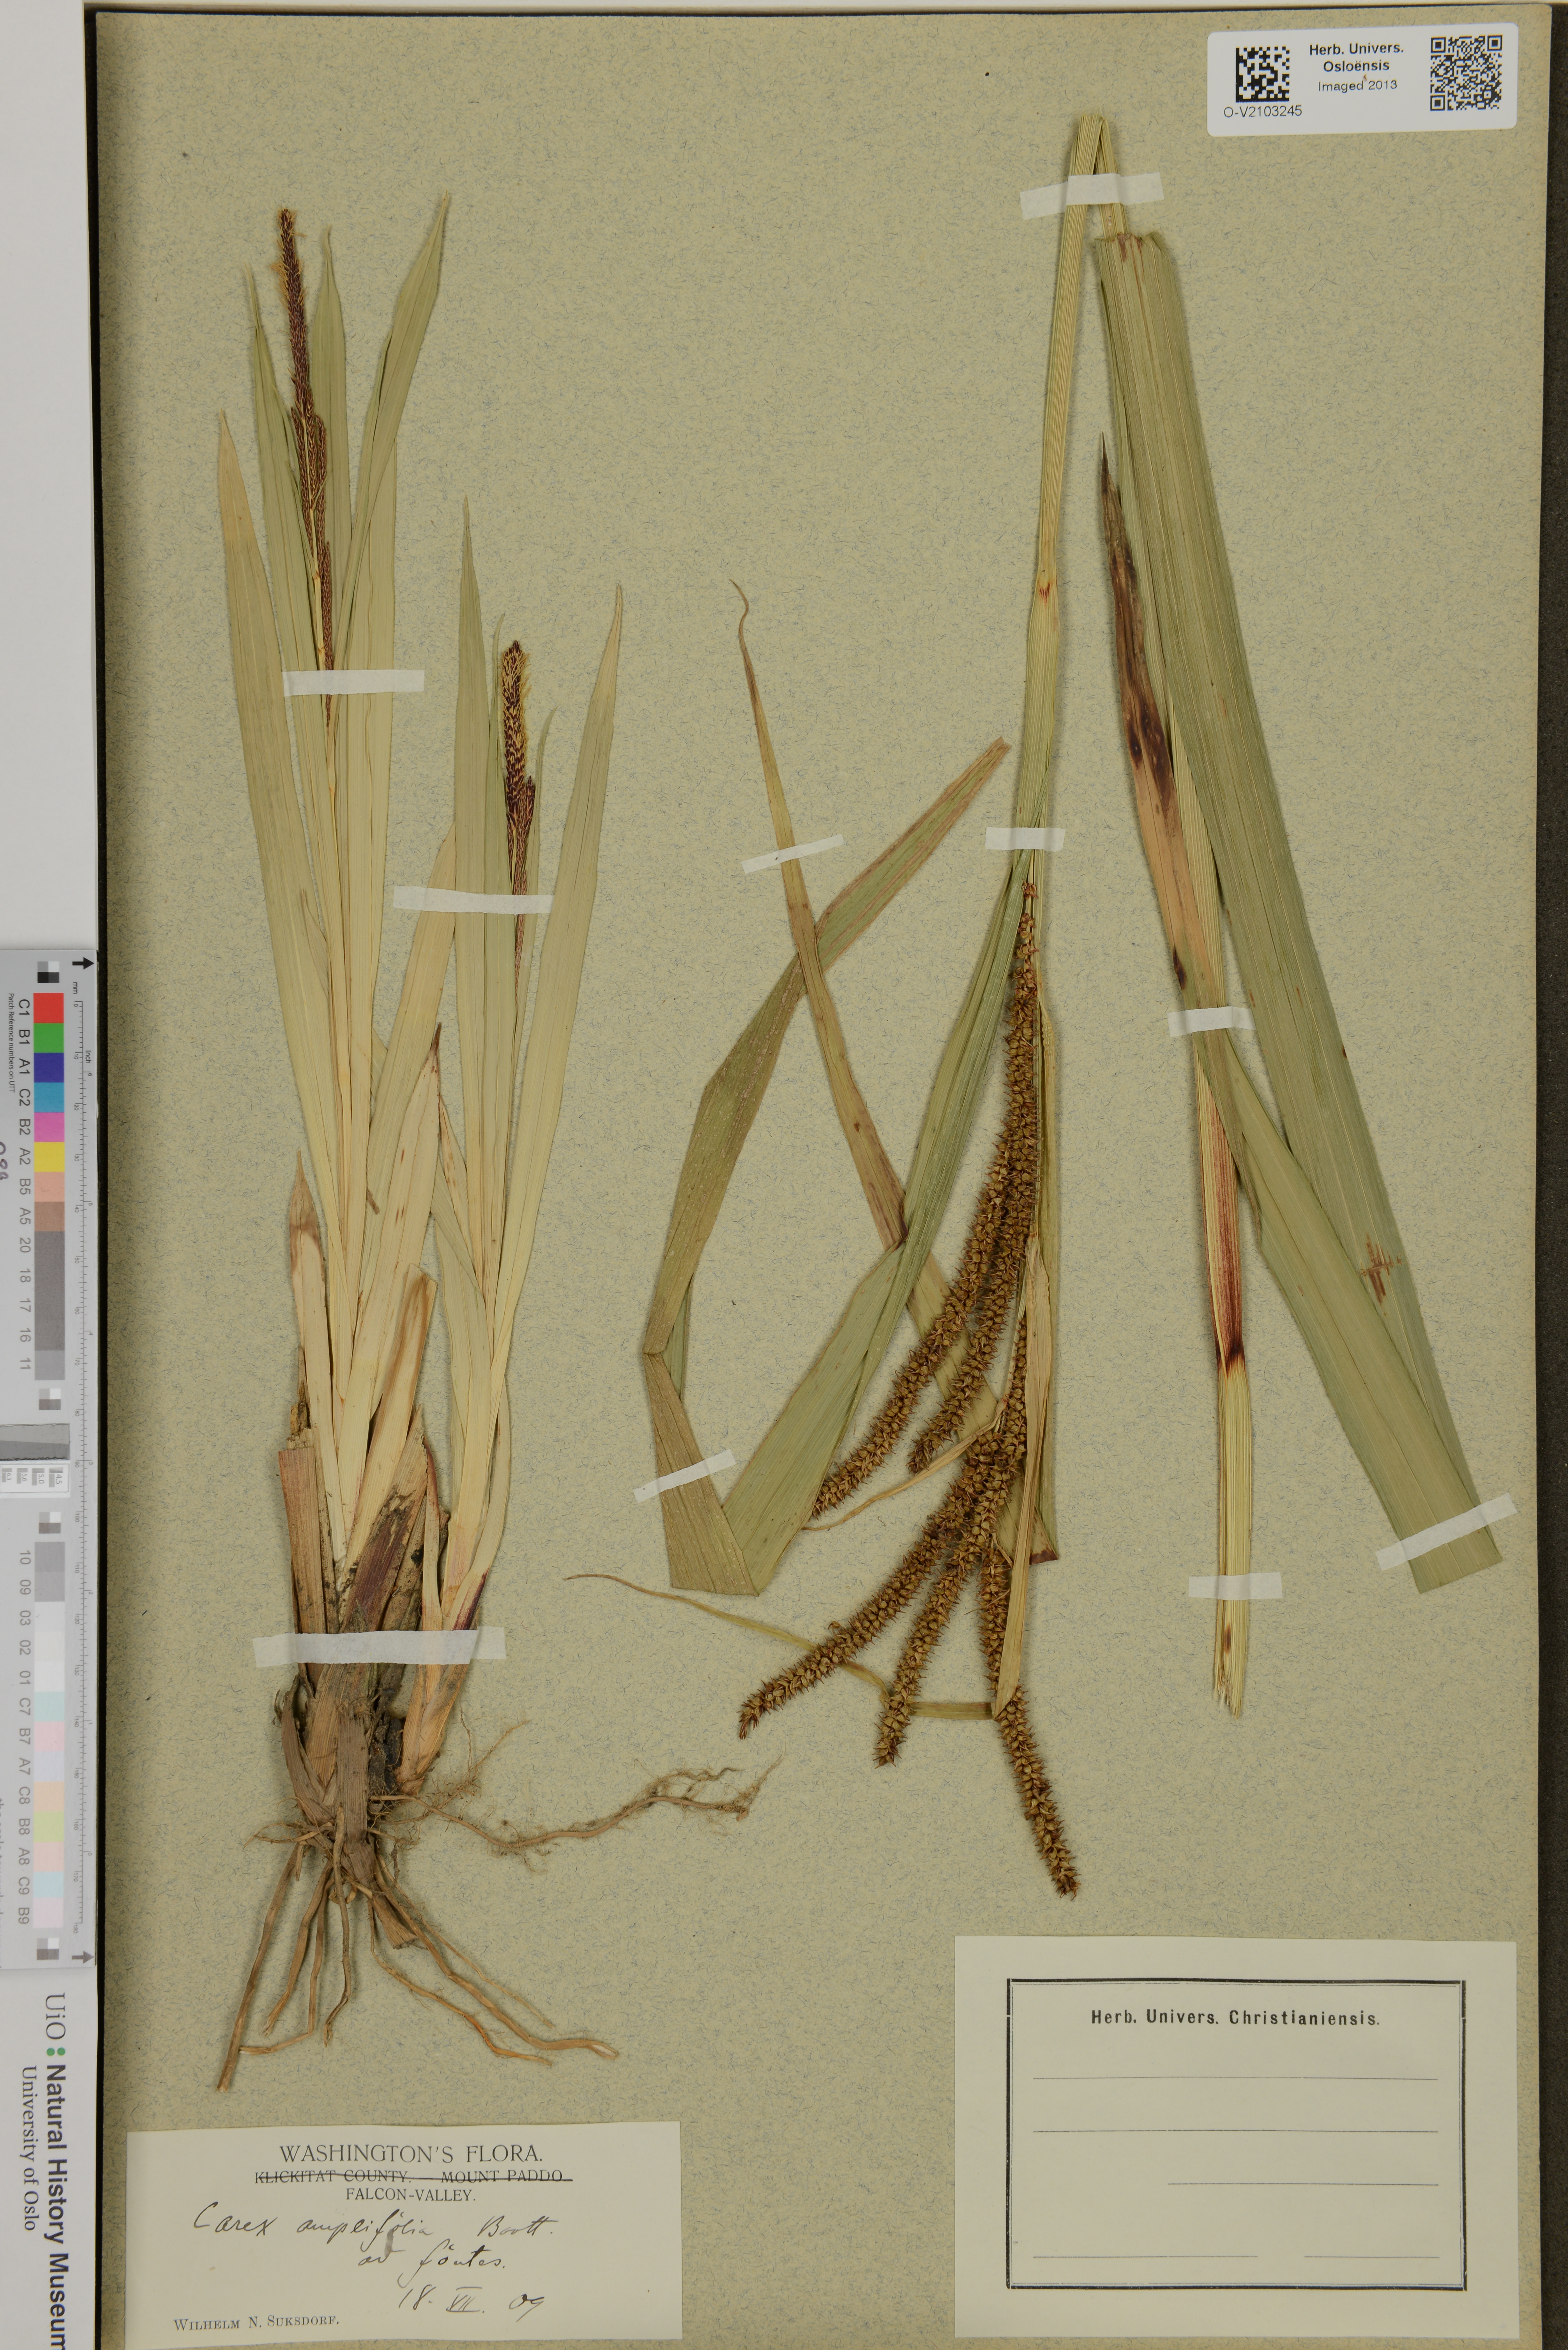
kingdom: Plantae
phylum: Tracheophyta
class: Liliopsida
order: Poales
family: Cyperaceae
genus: Carex
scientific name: Carex amplifolia
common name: Ample-leaved sedge
